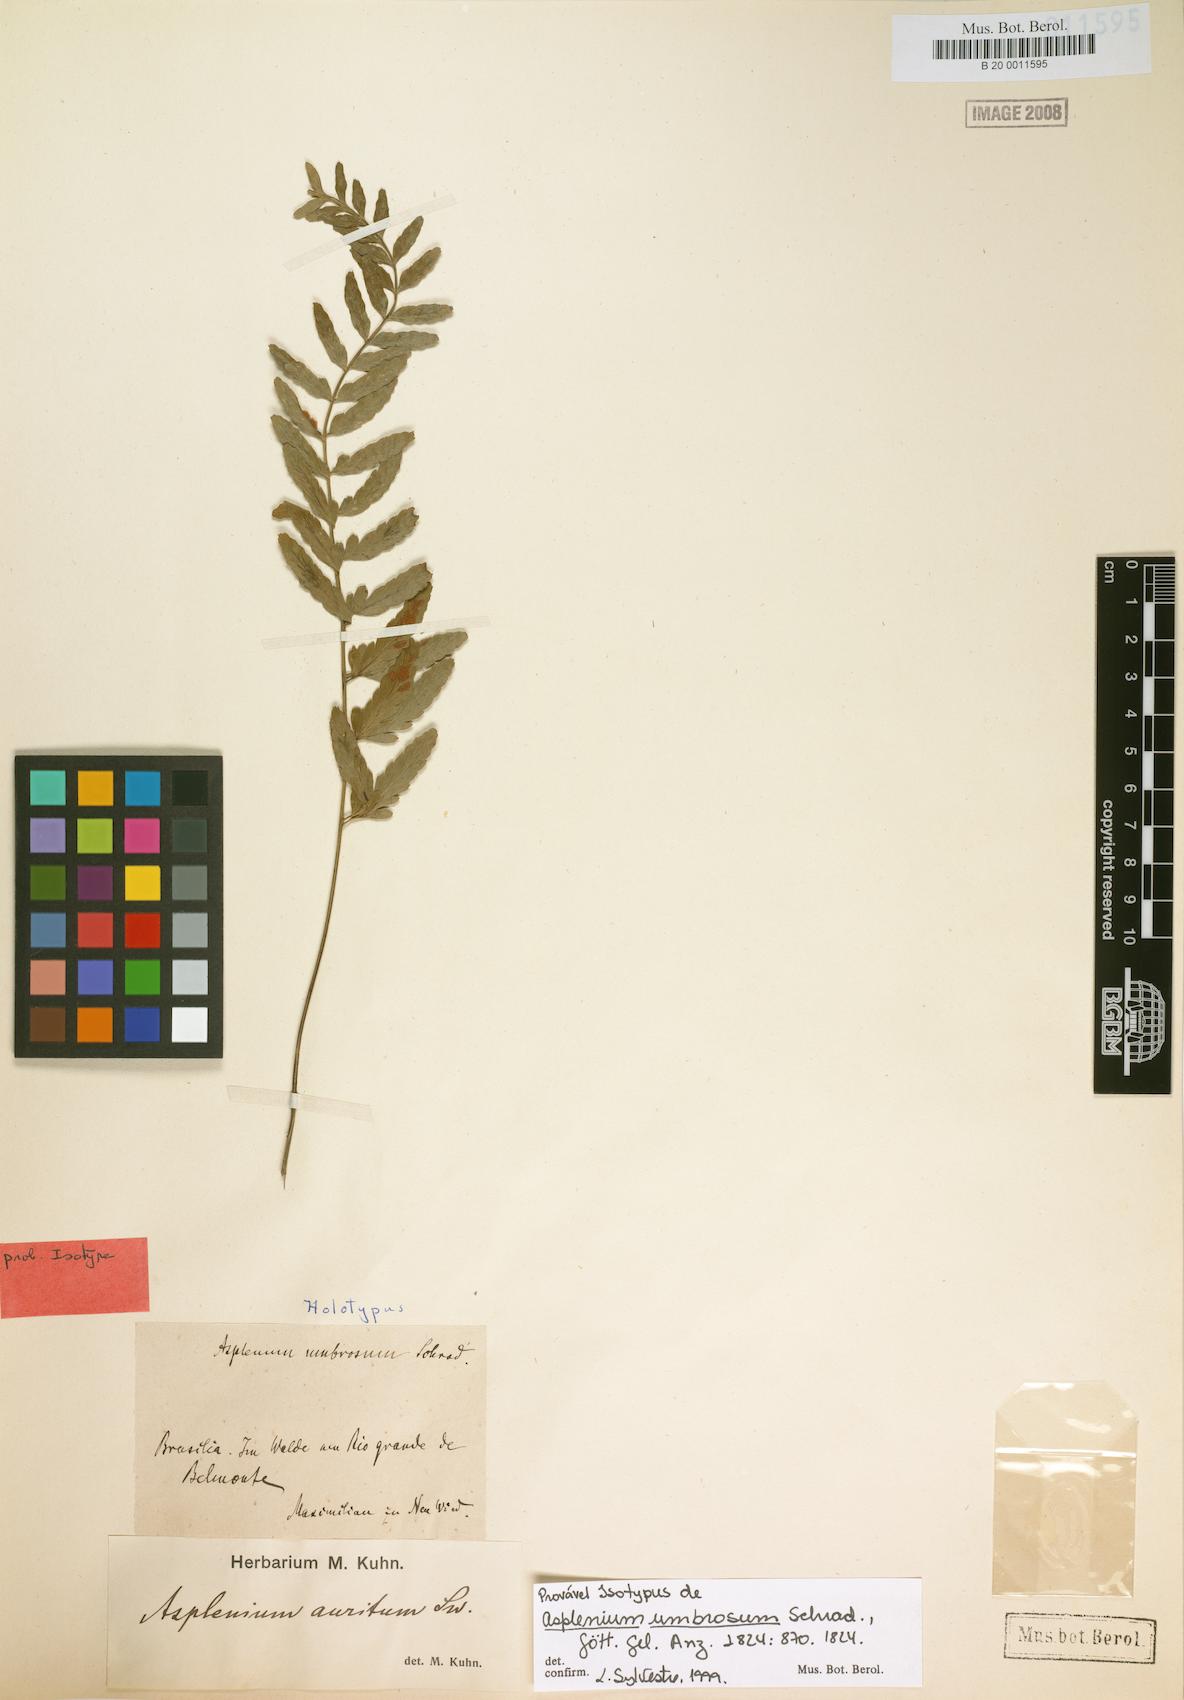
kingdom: Plantae
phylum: Tracheophyta
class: Polypodiopsida
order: Polypodiales
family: Aspleniaceae
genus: Asplenium
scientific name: Asplenium auritum
